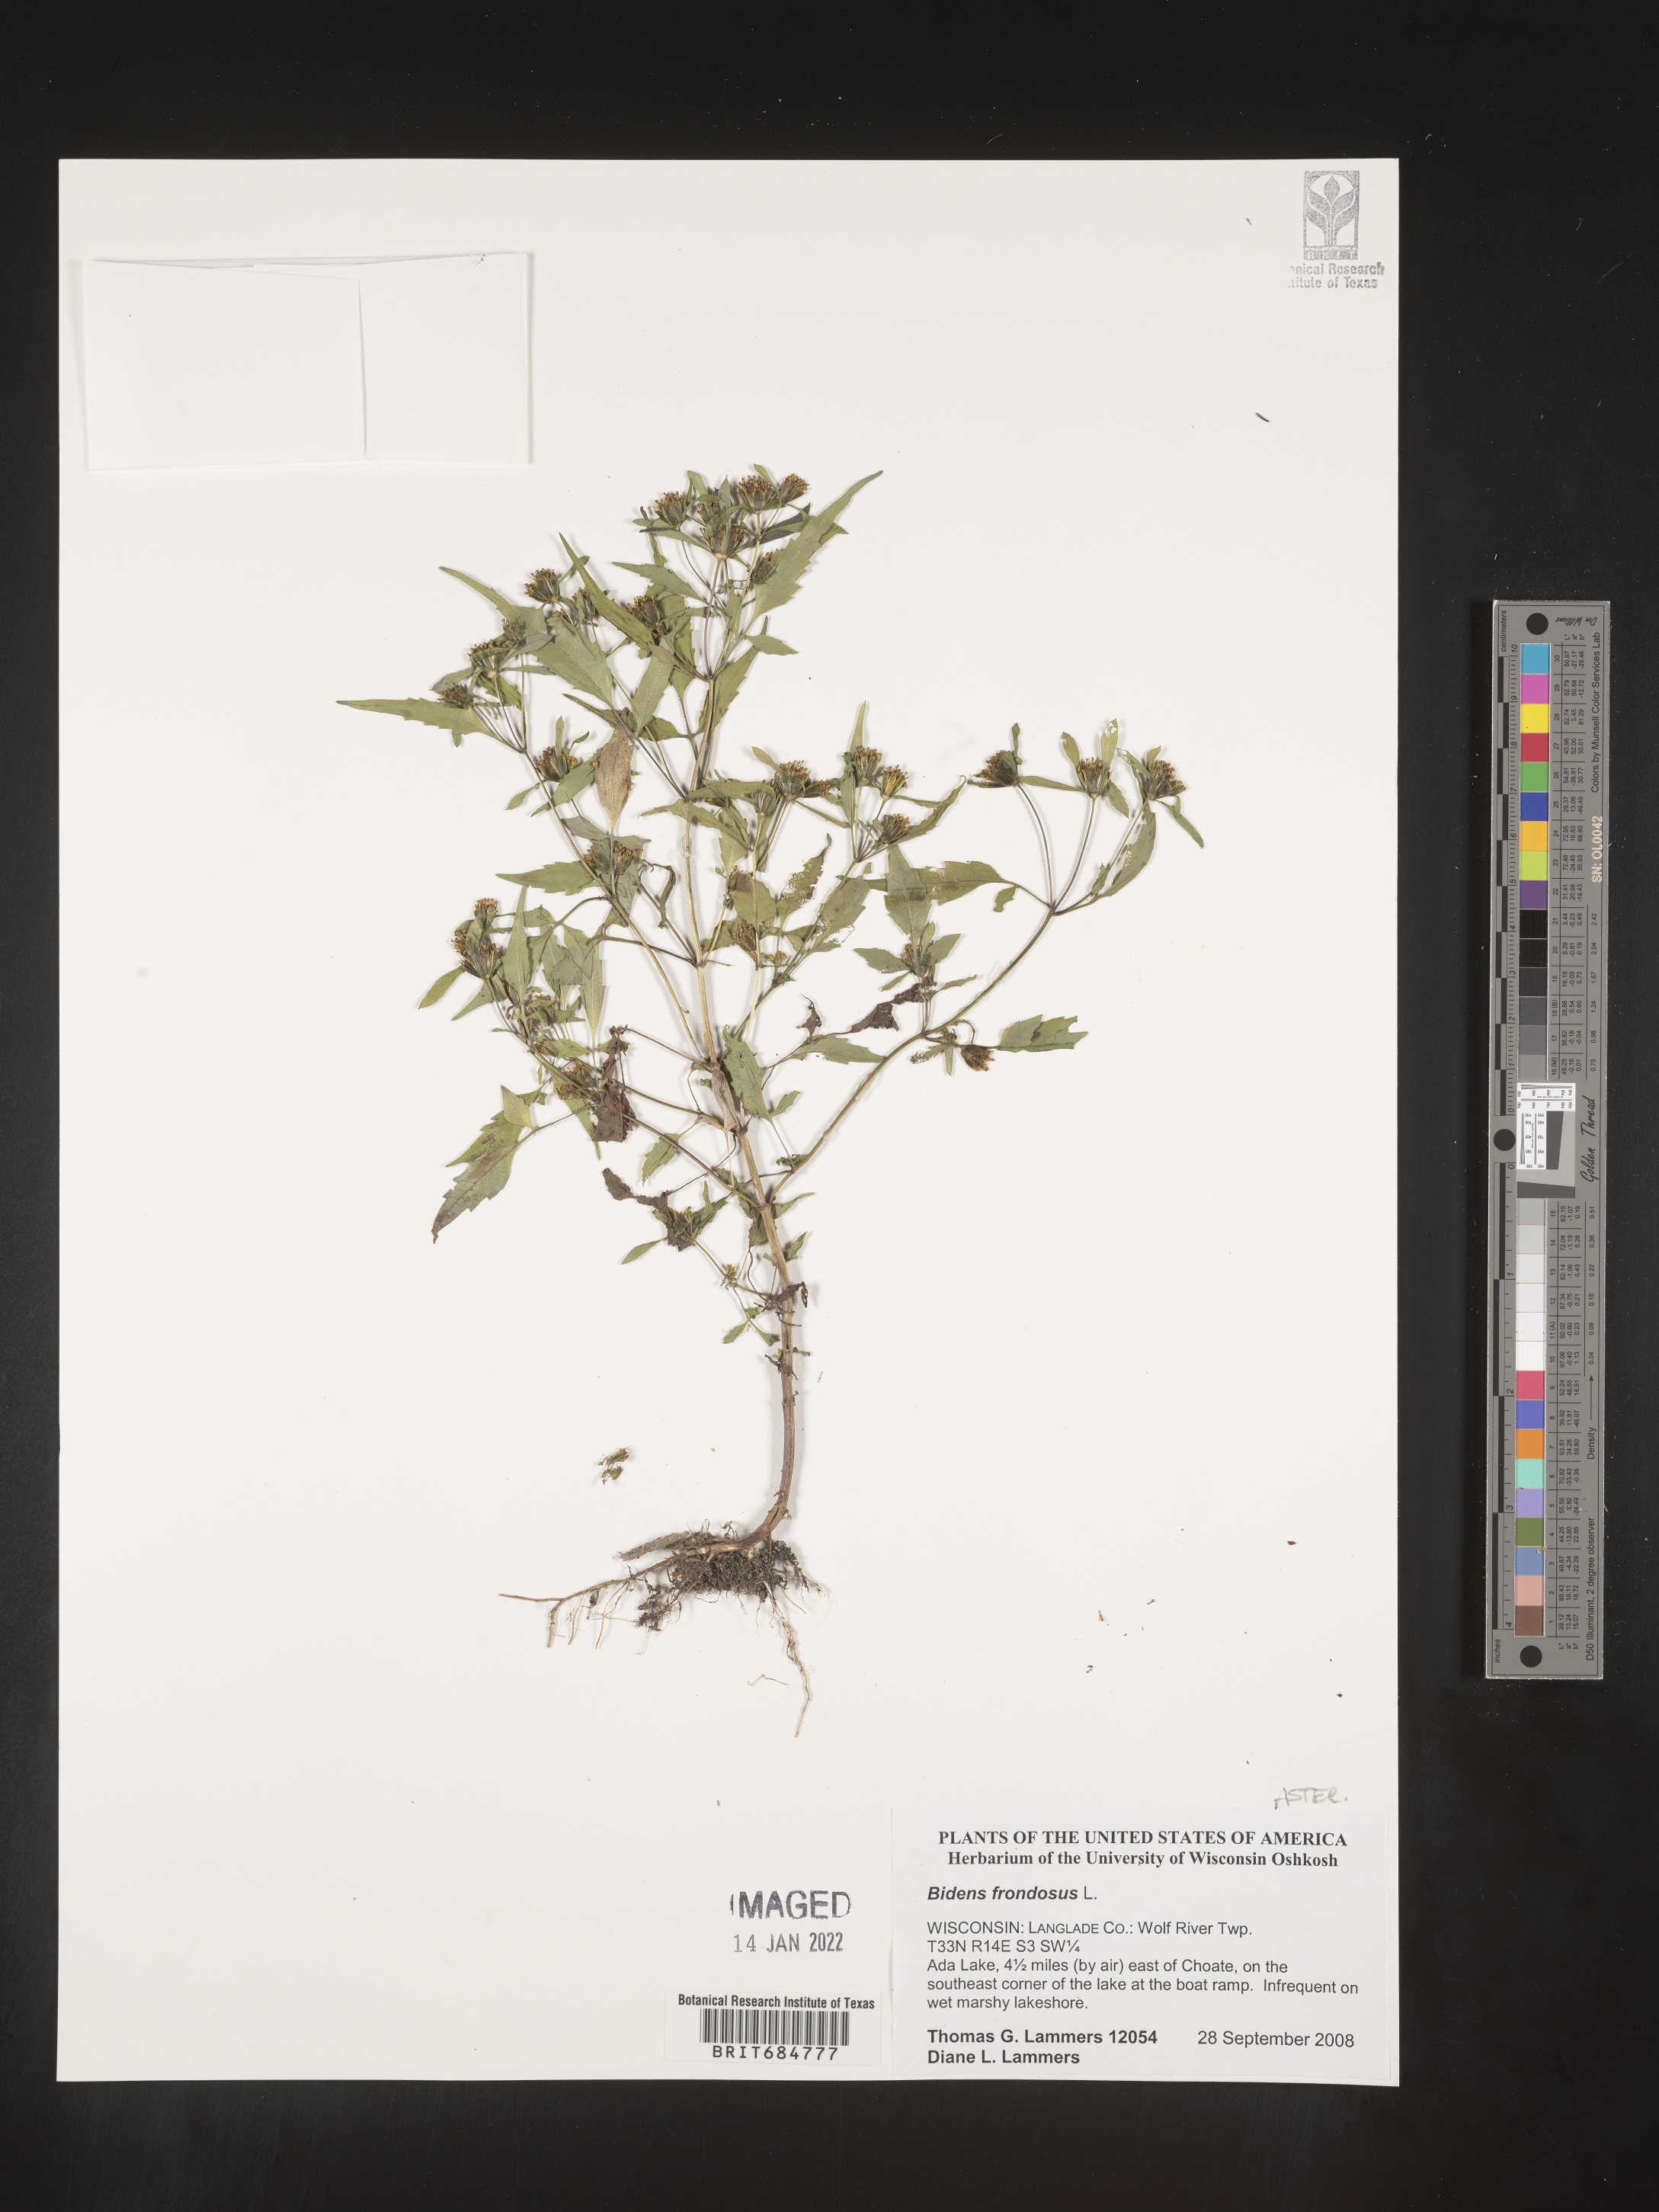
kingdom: Plantae
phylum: Tracheophyta
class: Magnoliopsida
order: Asterales
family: Asteraceae
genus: Bidens
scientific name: Bidens frondosa
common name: Beggarticks
